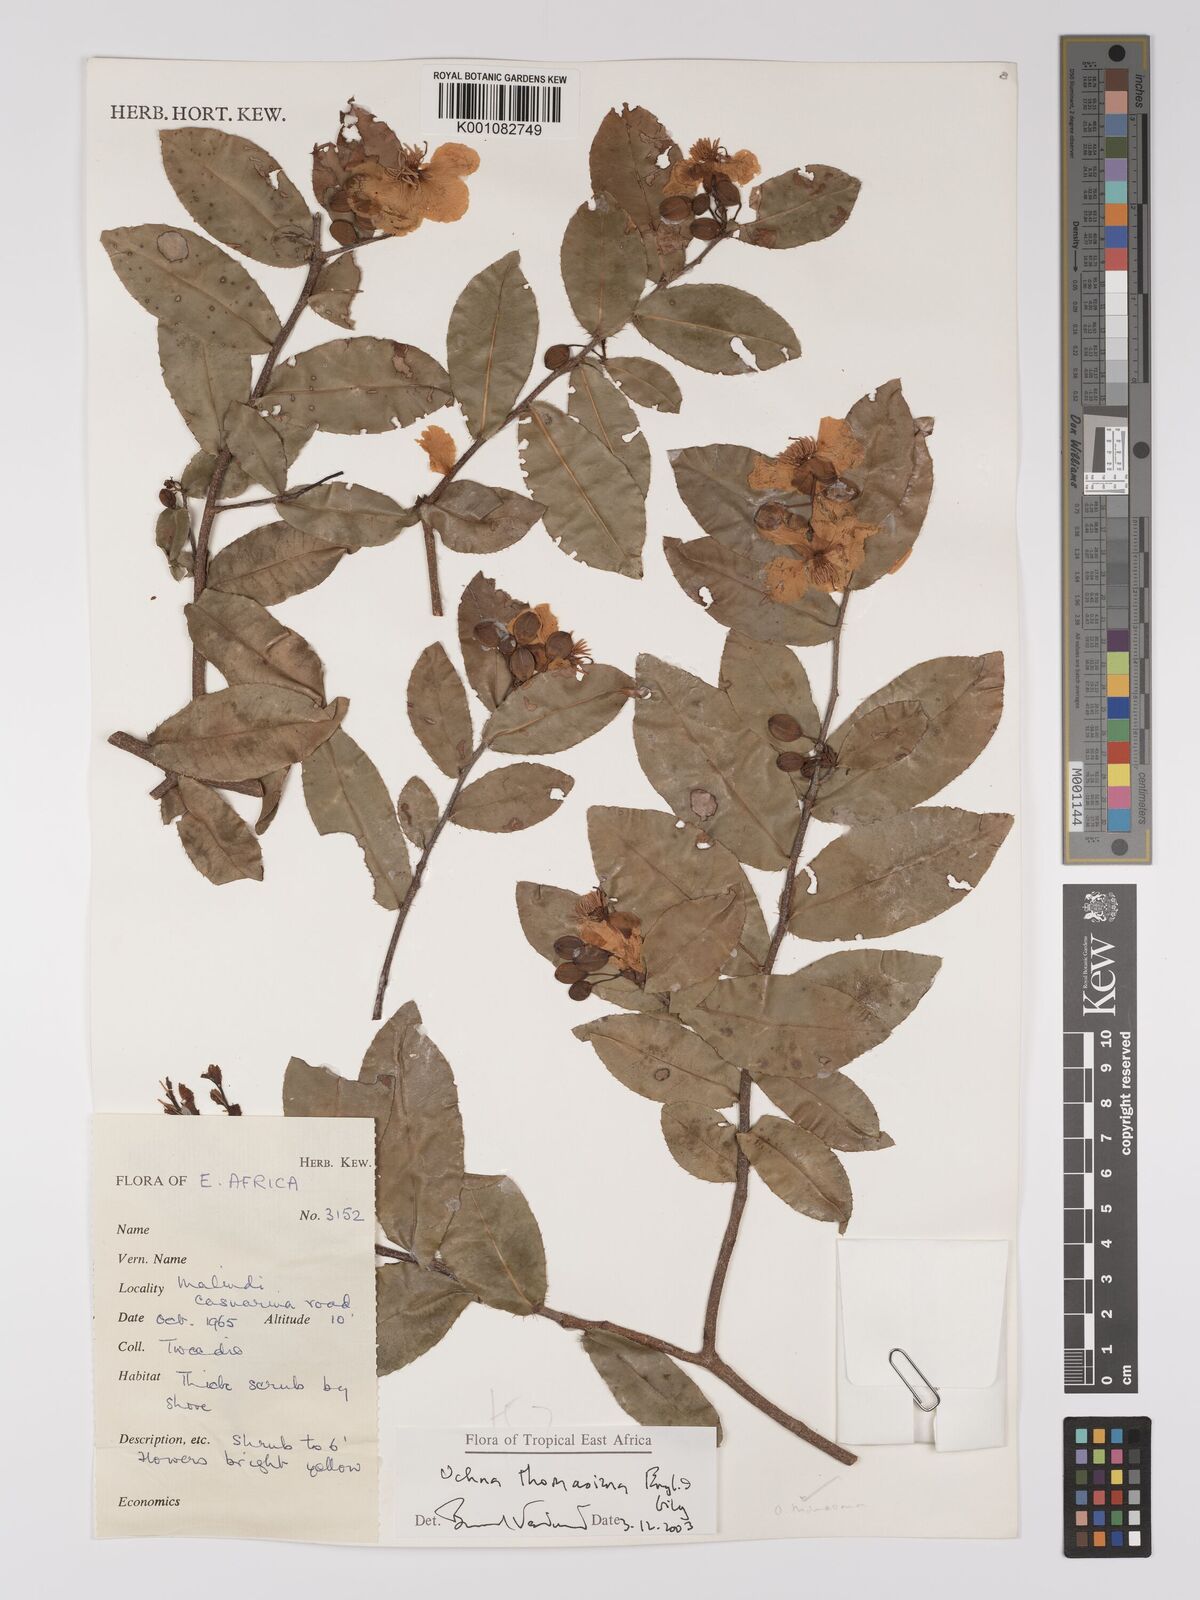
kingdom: Plantae
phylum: Tracheophyta
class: Magnoliopsida
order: Malpighiales
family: Ochnaceae
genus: Ochna
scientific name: Ochna thomasiana
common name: Thomas' bird's-eye bush
